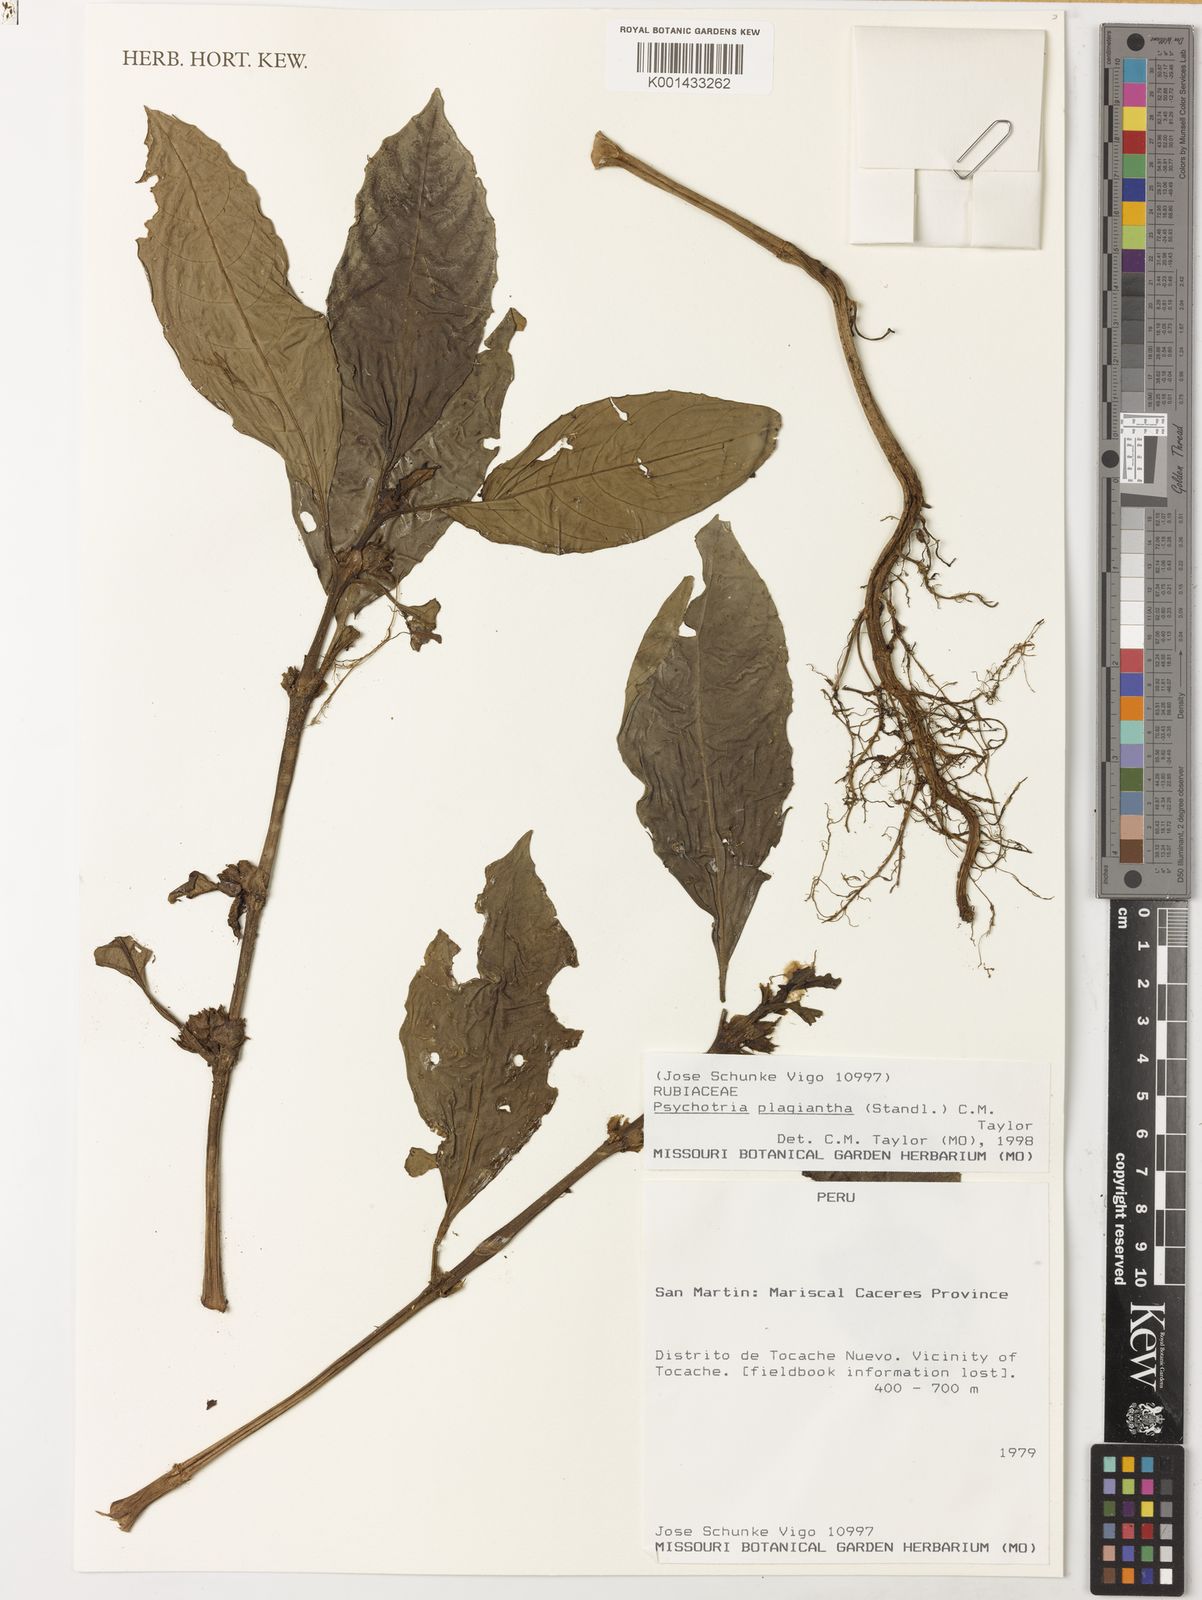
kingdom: Plantae
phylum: Tracheophyta
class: Magnoliopsida
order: Gentianales
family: Rubiaceae
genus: Notopleura
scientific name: Notopleura plagiantha
